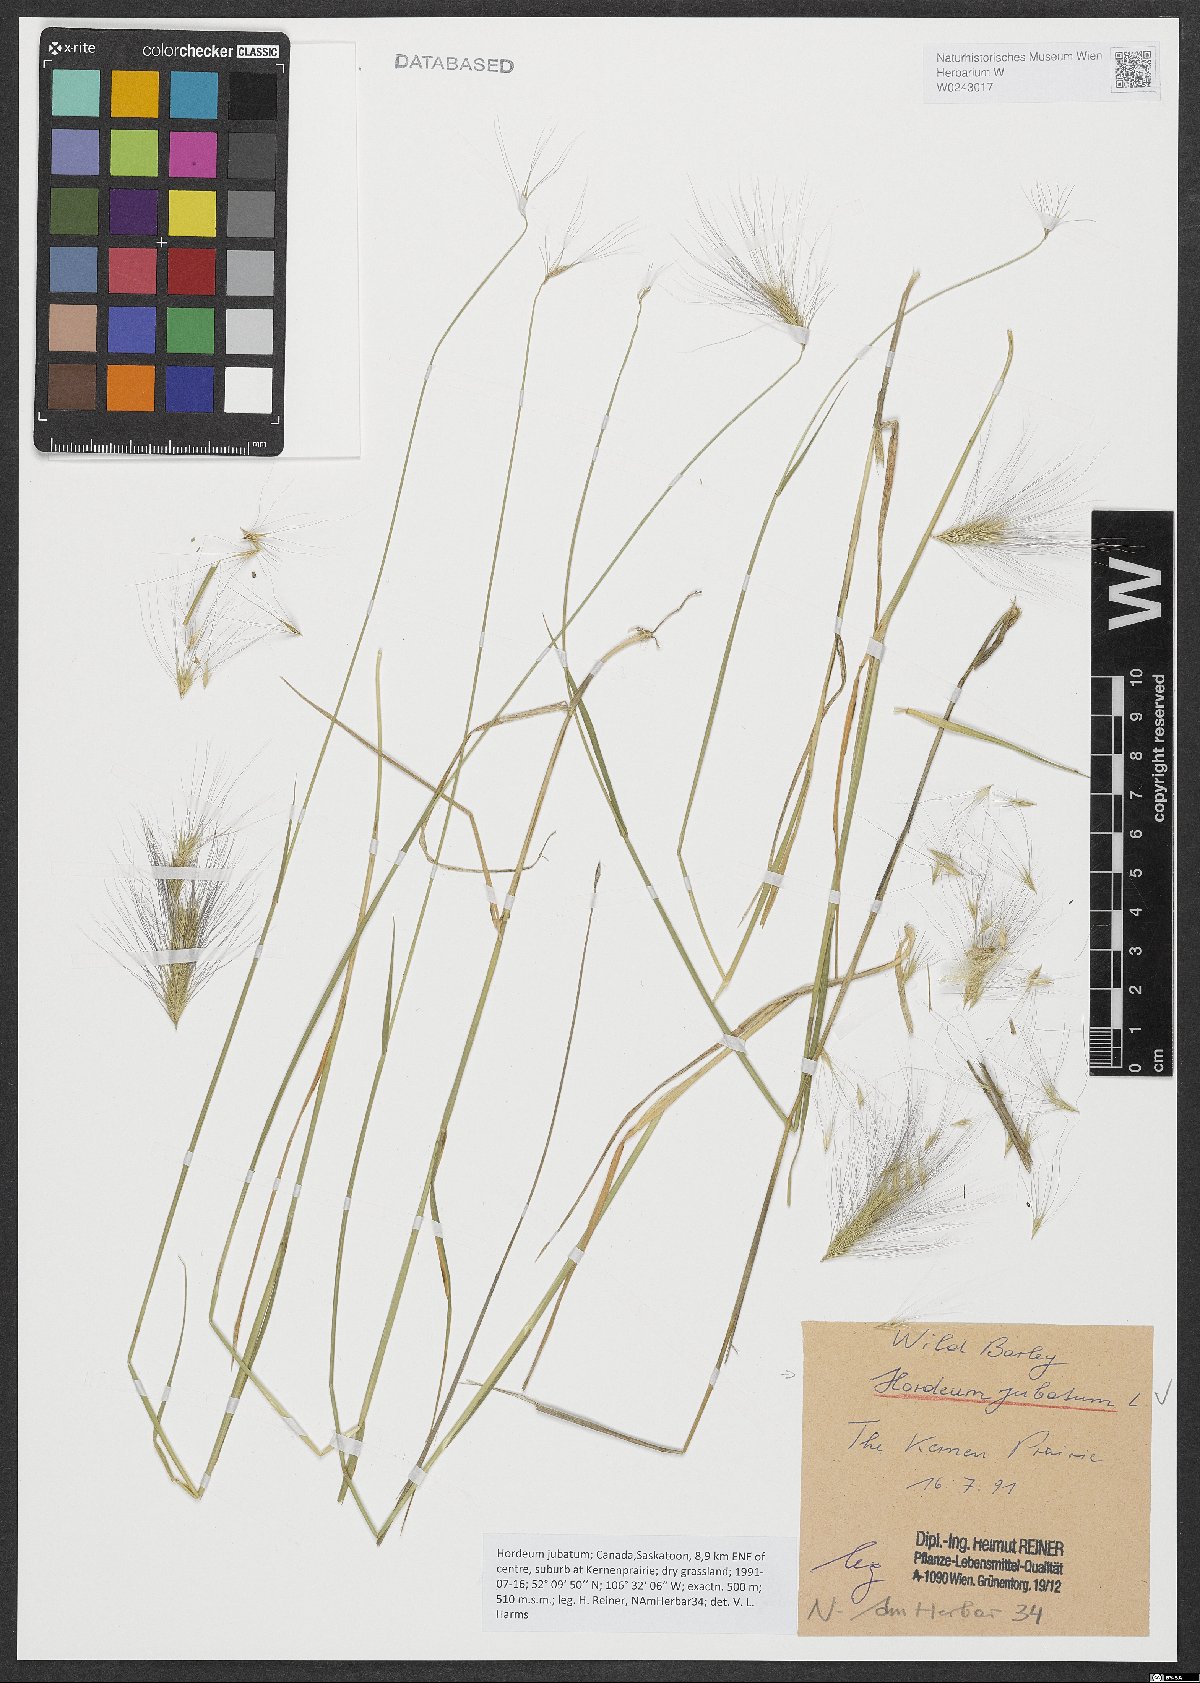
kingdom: Plantae
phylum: Tracheophyta
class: Liliopsida
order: Poales
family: Poaceae
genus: Hordeum
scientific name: Hordeum jubatum
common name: Foxtail barley
